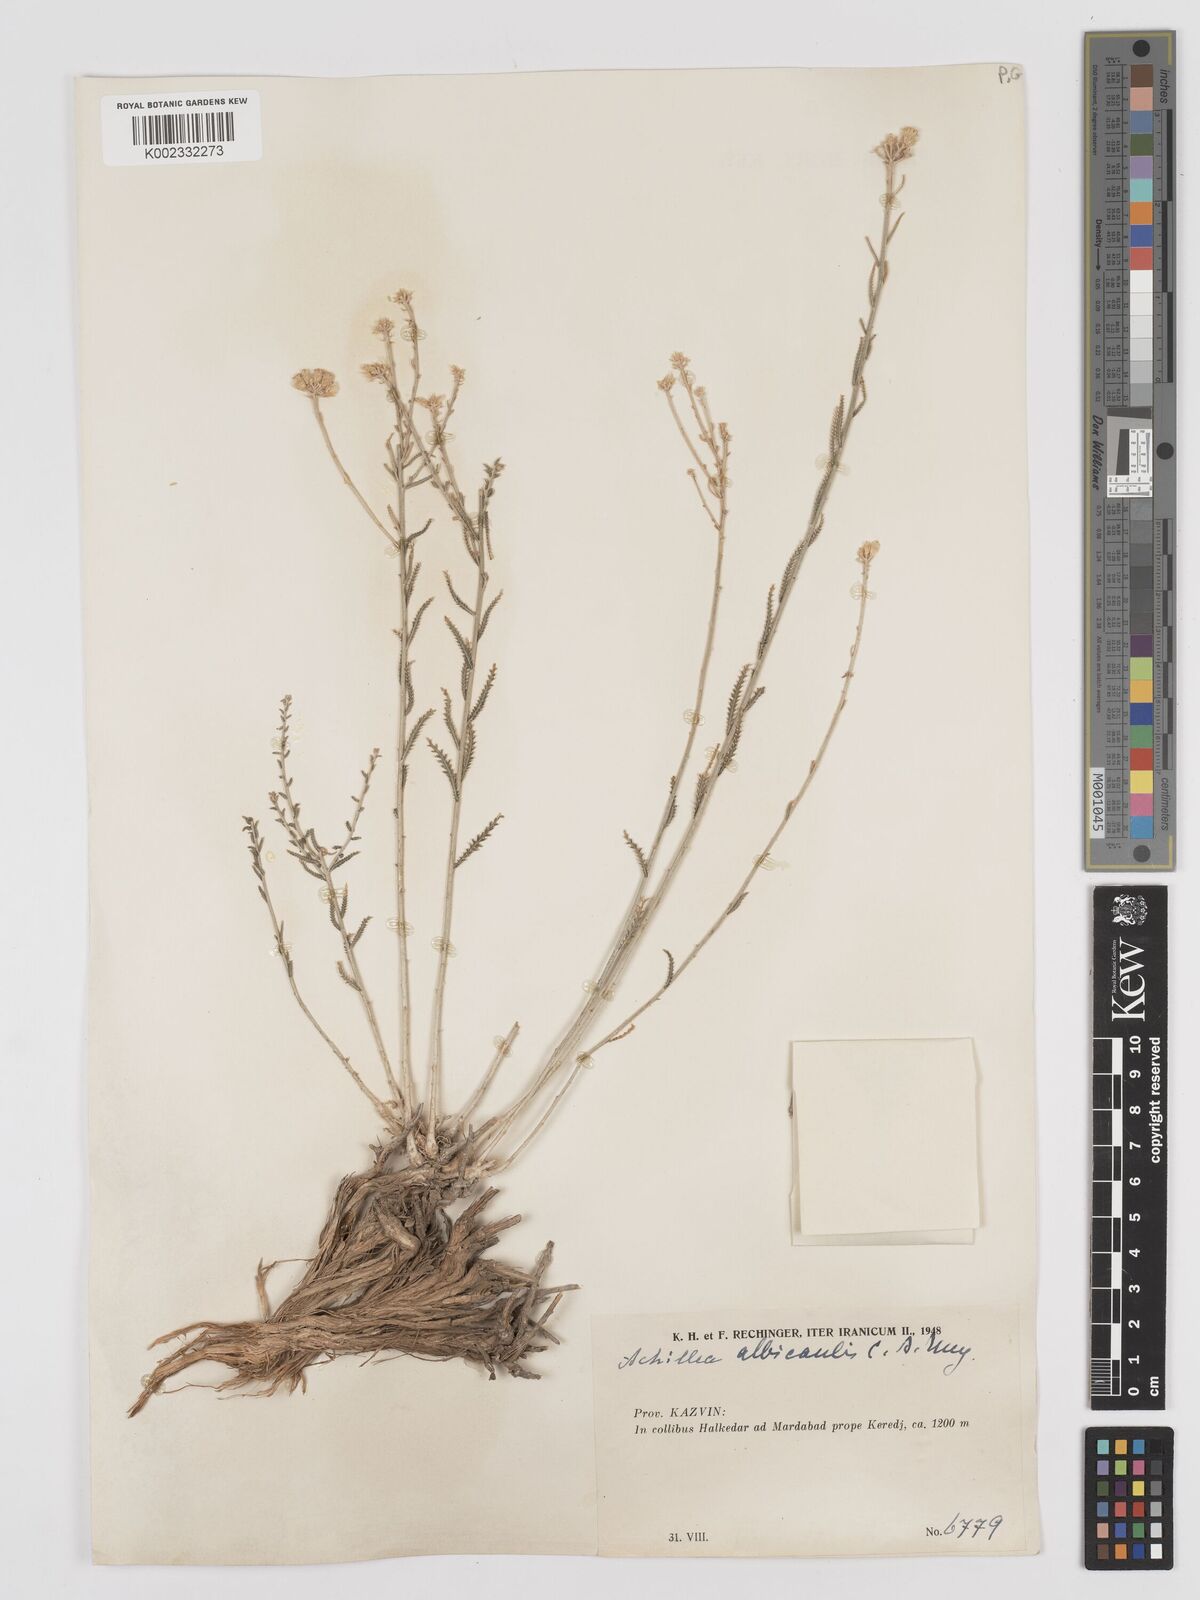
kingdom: Plantae
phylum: Tracheophyta
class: Magnoliopsida
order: Asterales
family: Asteraceae
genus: Achillea
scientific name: Achillea tenuifolia
